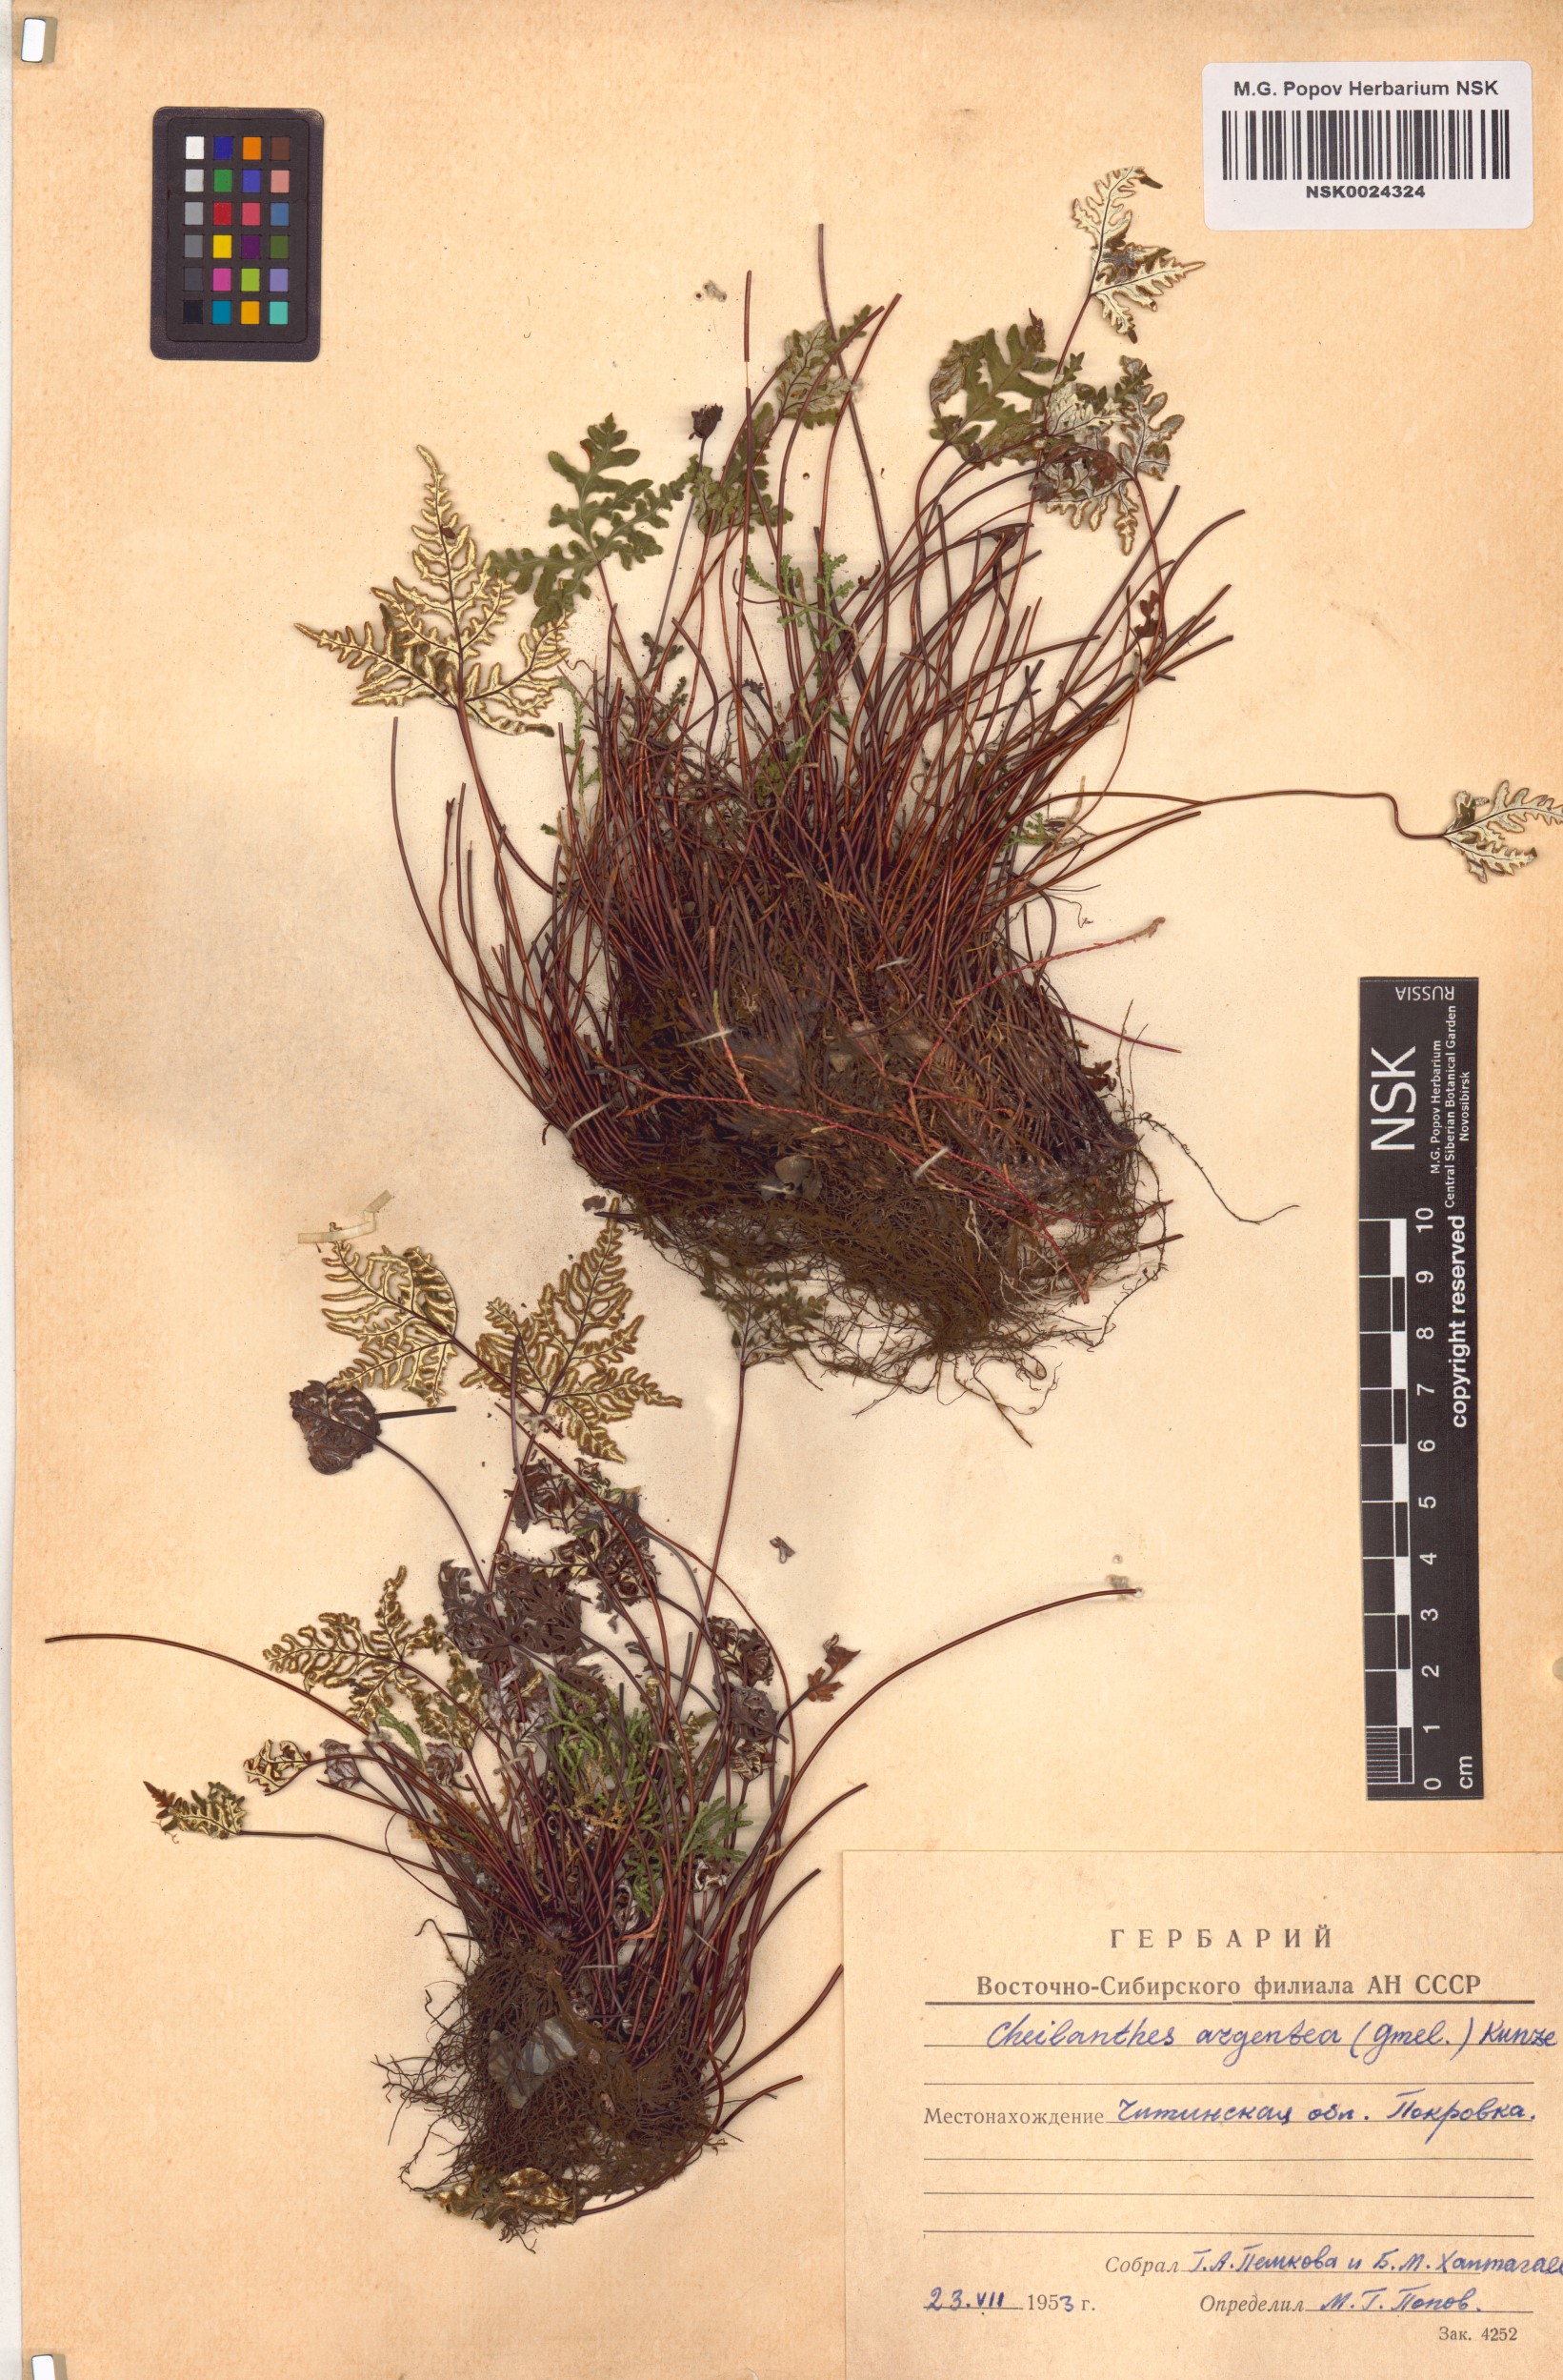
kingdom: Plantae
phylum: Tracheophyta
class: Polypodiopsida
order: Polypodiales
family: Pteridaceae
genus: Aleuritopteris
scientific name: Aleuritopteris argentea
